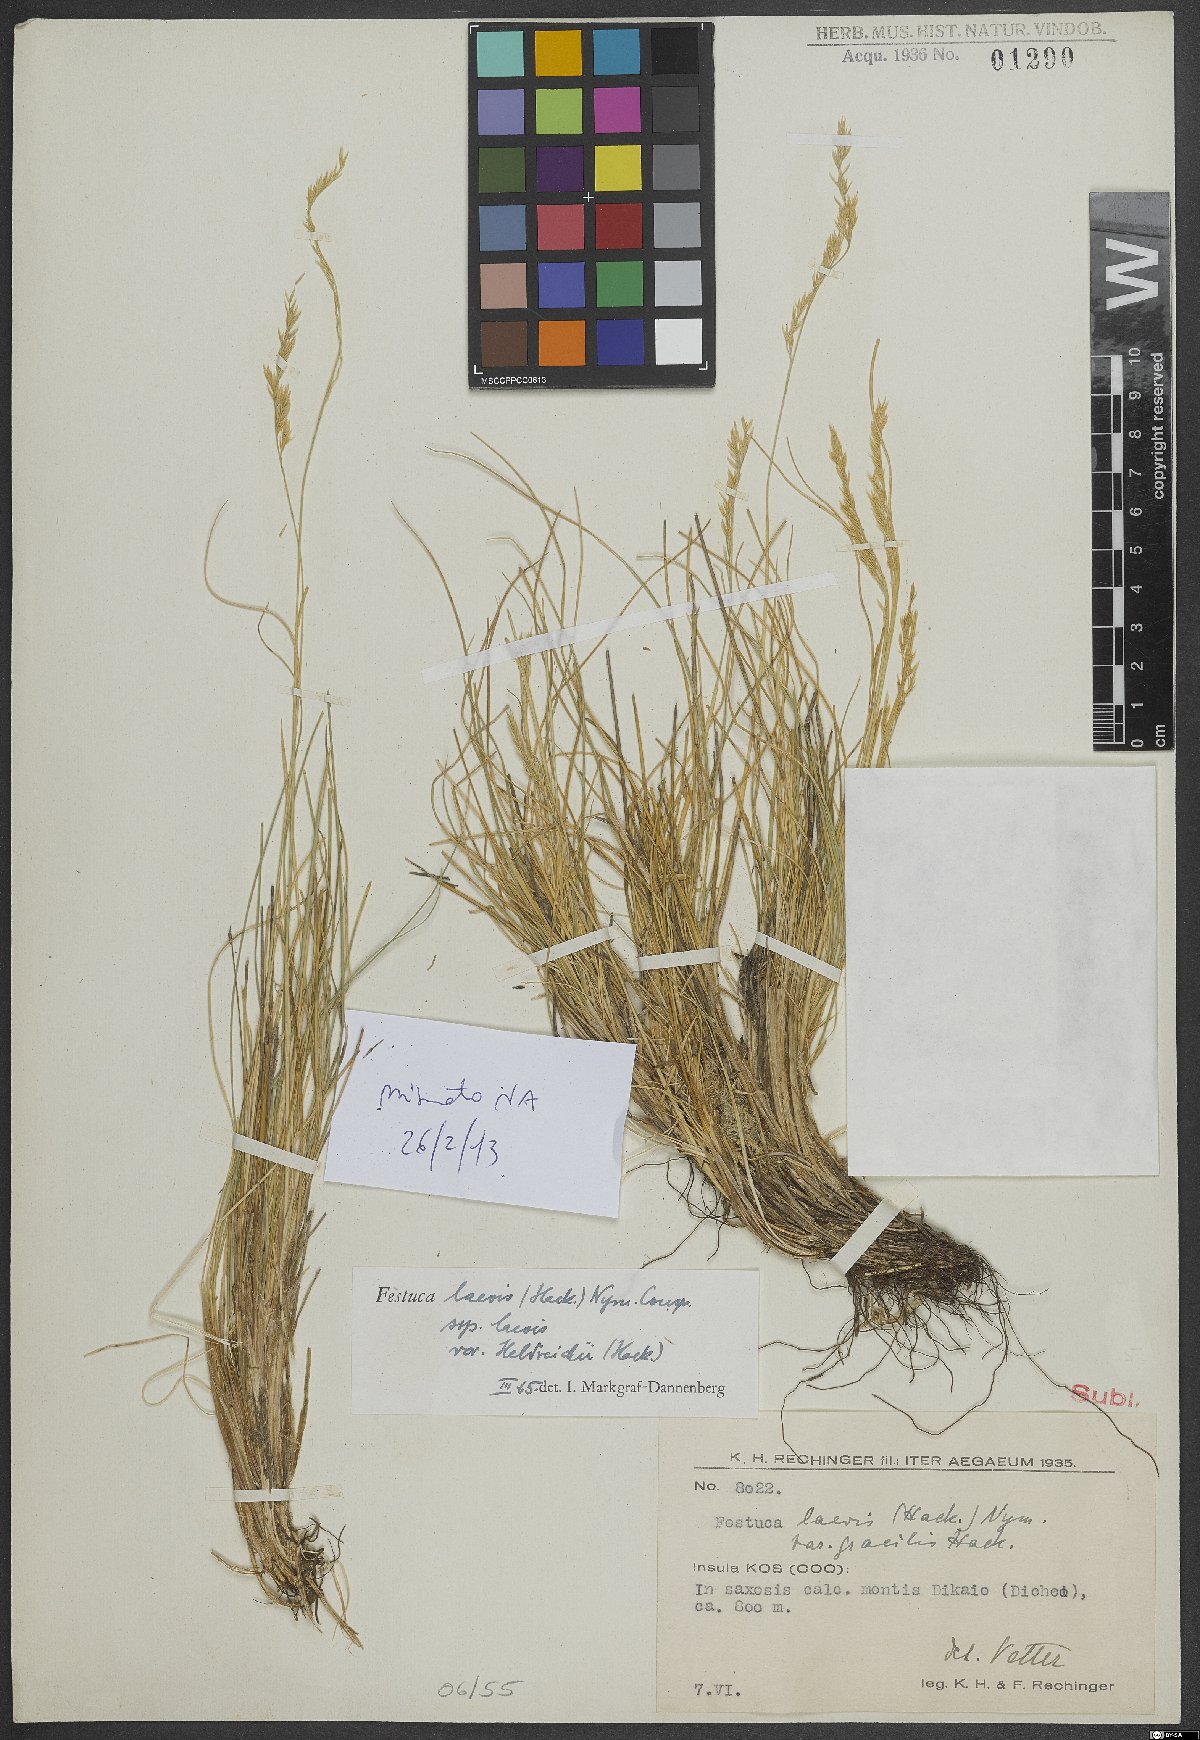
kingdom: Plantae
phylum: Tracheophyta
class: Liliopsida
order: Poales
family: Poaceae
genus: Festuca
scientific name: Festuca laevis
